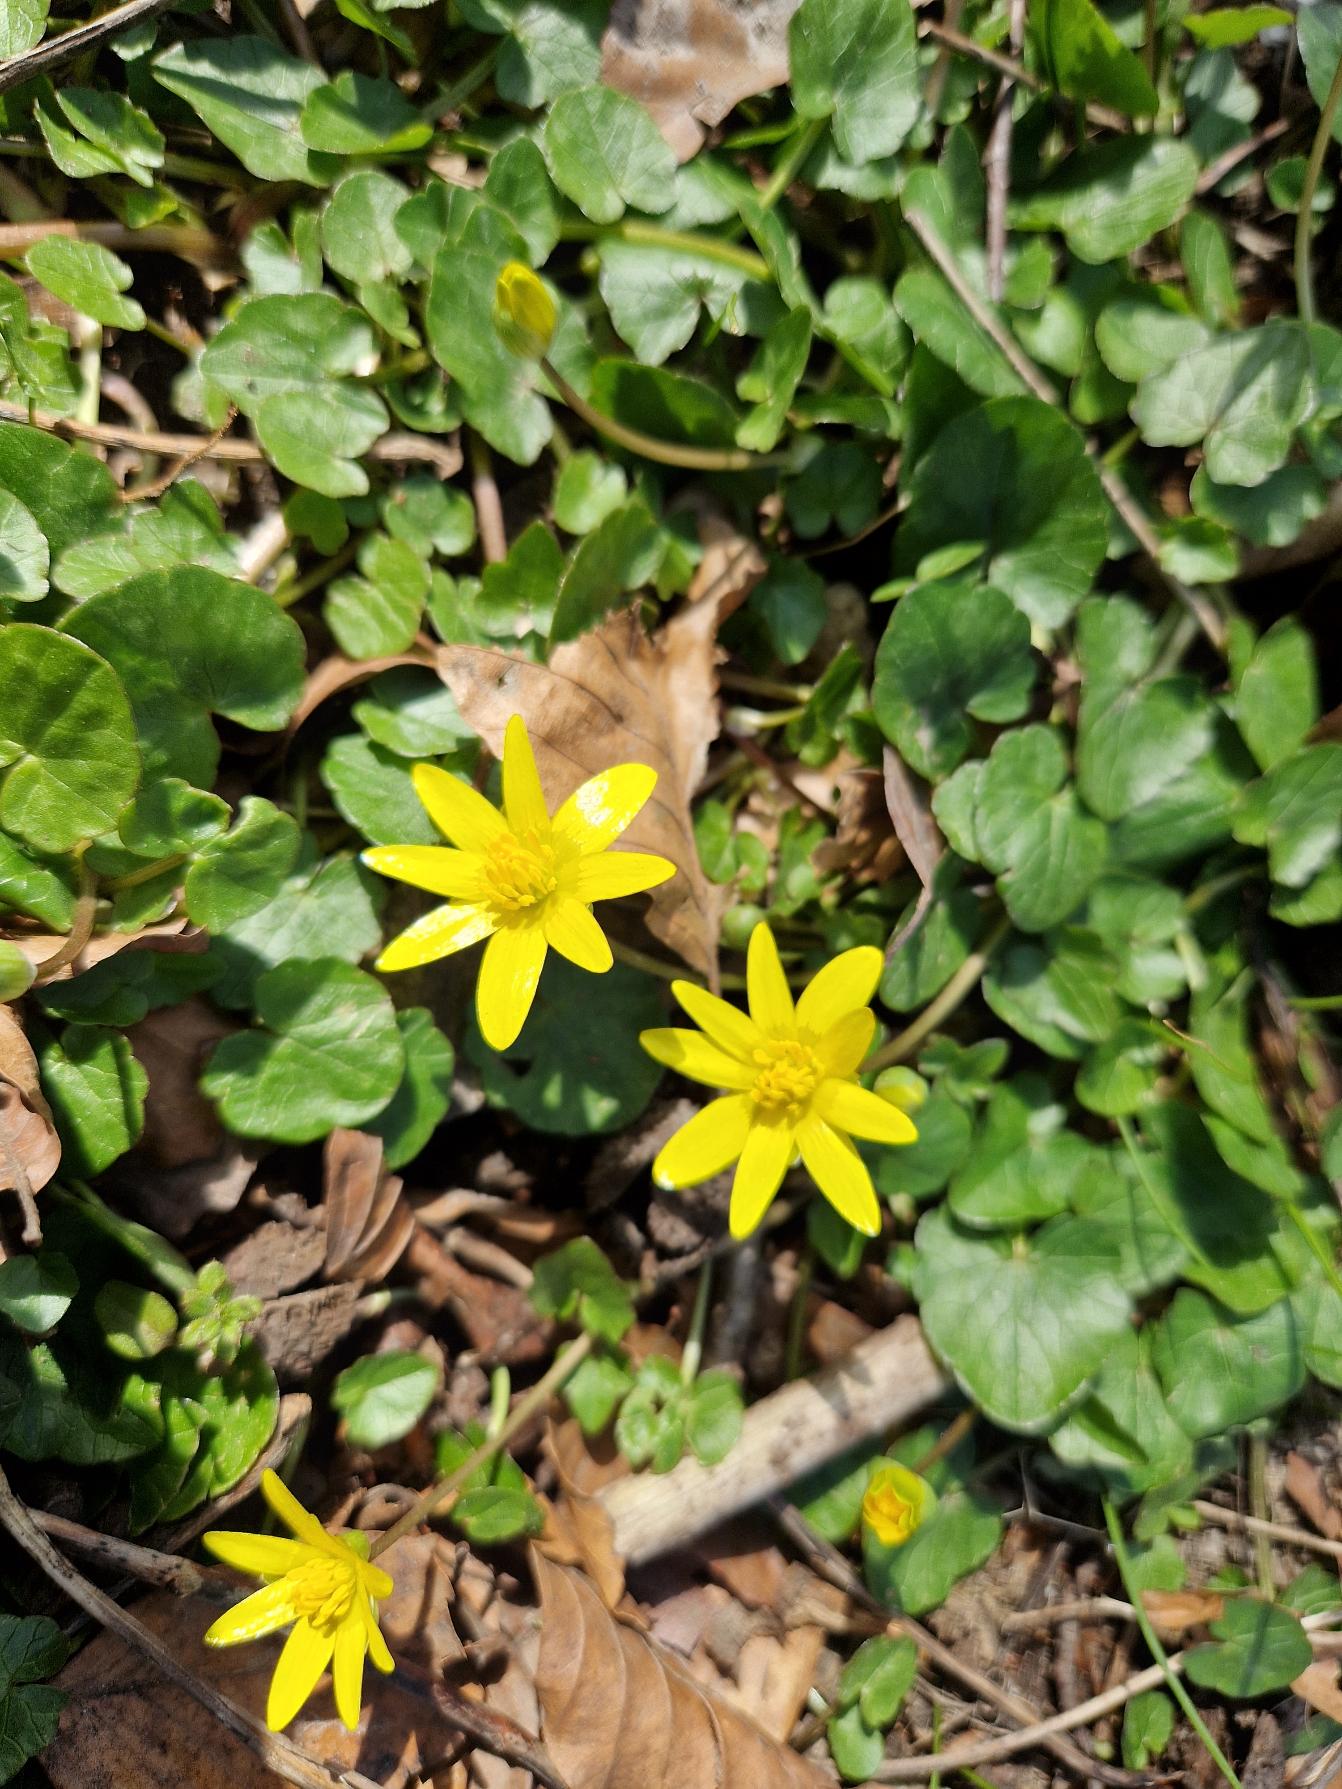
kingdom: Plantae
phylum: Tracheophyta
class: Magnoliopsida
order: Ranunculales
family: Ranunculaceae
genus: Ficaria
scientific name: Ficaria verna
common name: Vorterod
